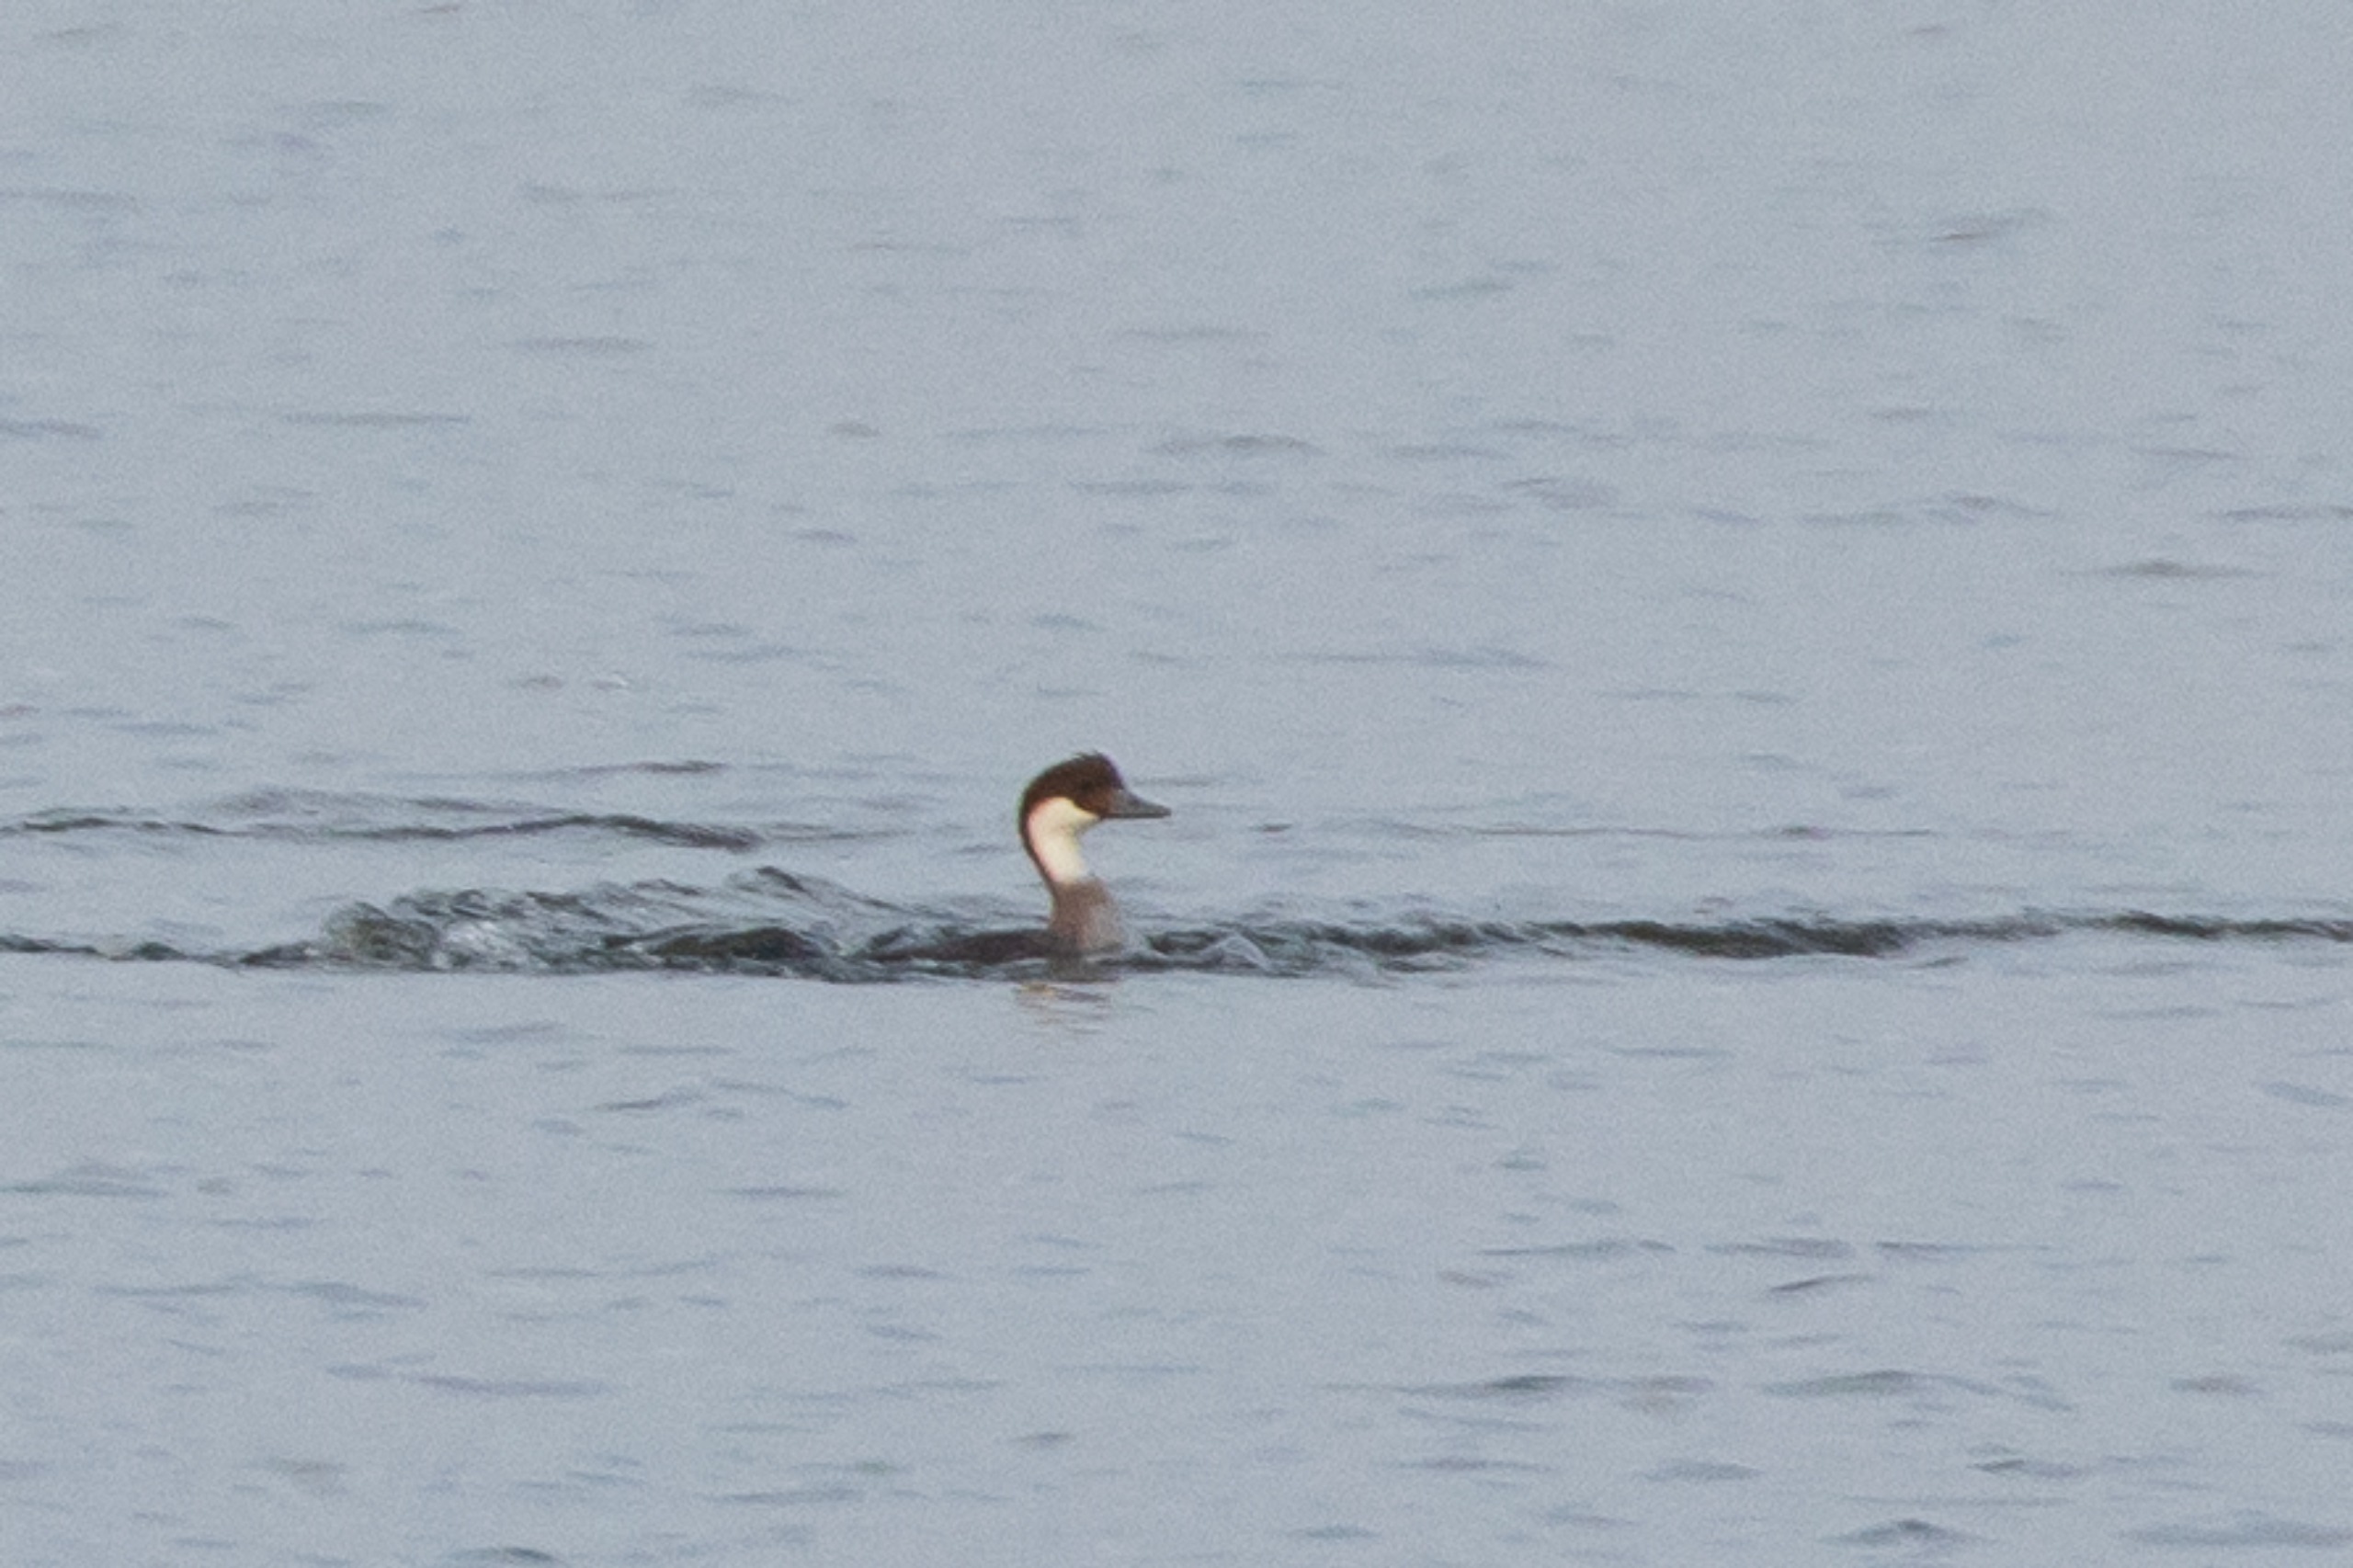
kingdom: Animalia
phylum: Chordata
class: Aves
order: Anseriformes
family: Anatidae
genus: Mergellus
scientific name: Mergellus albellus
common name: Lille skallesluger
